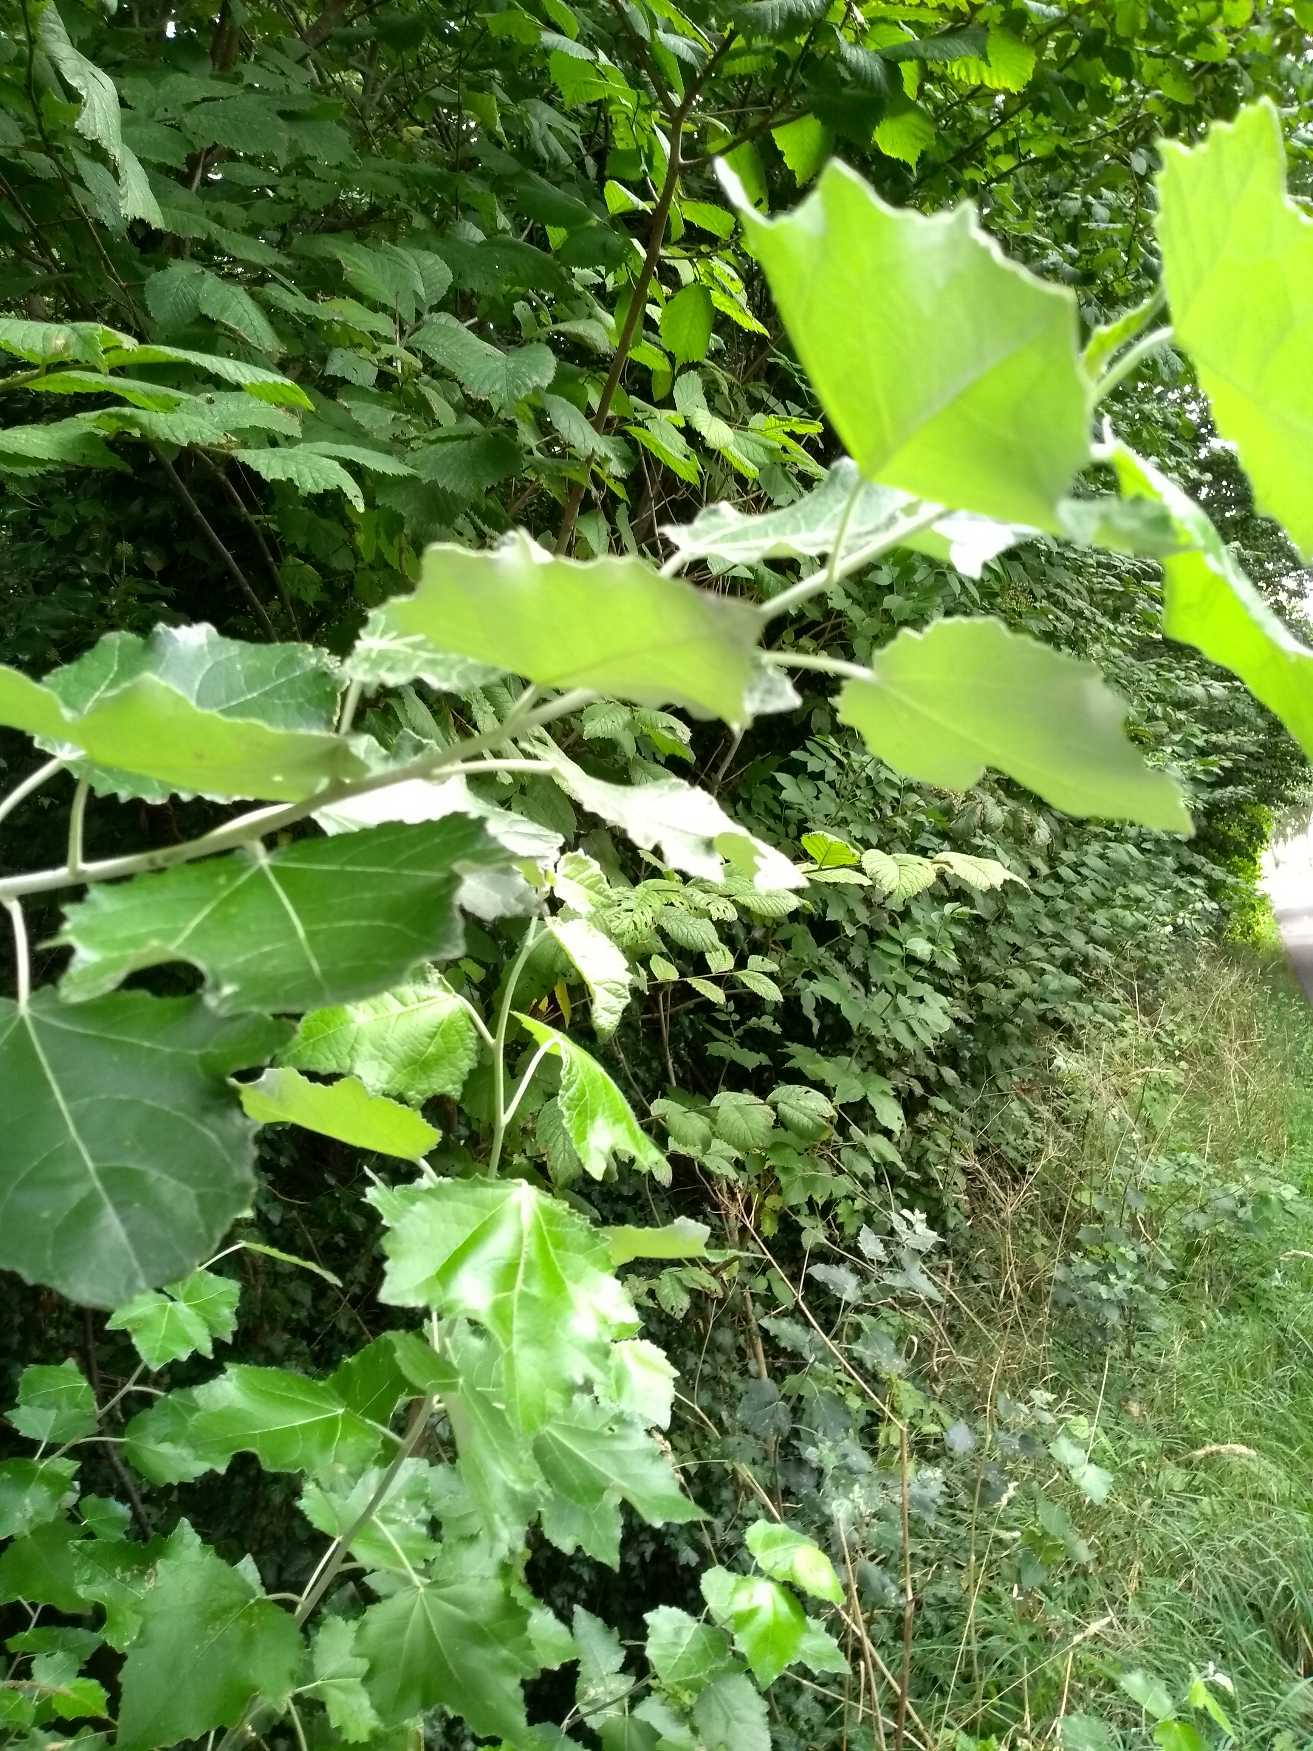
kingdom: Plantae
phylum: Tracheophyta
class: Magnoliopsida
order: Malpighiales
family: Salicaceae
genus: Populus
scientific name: Populus alba
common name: Sølv-poppel
